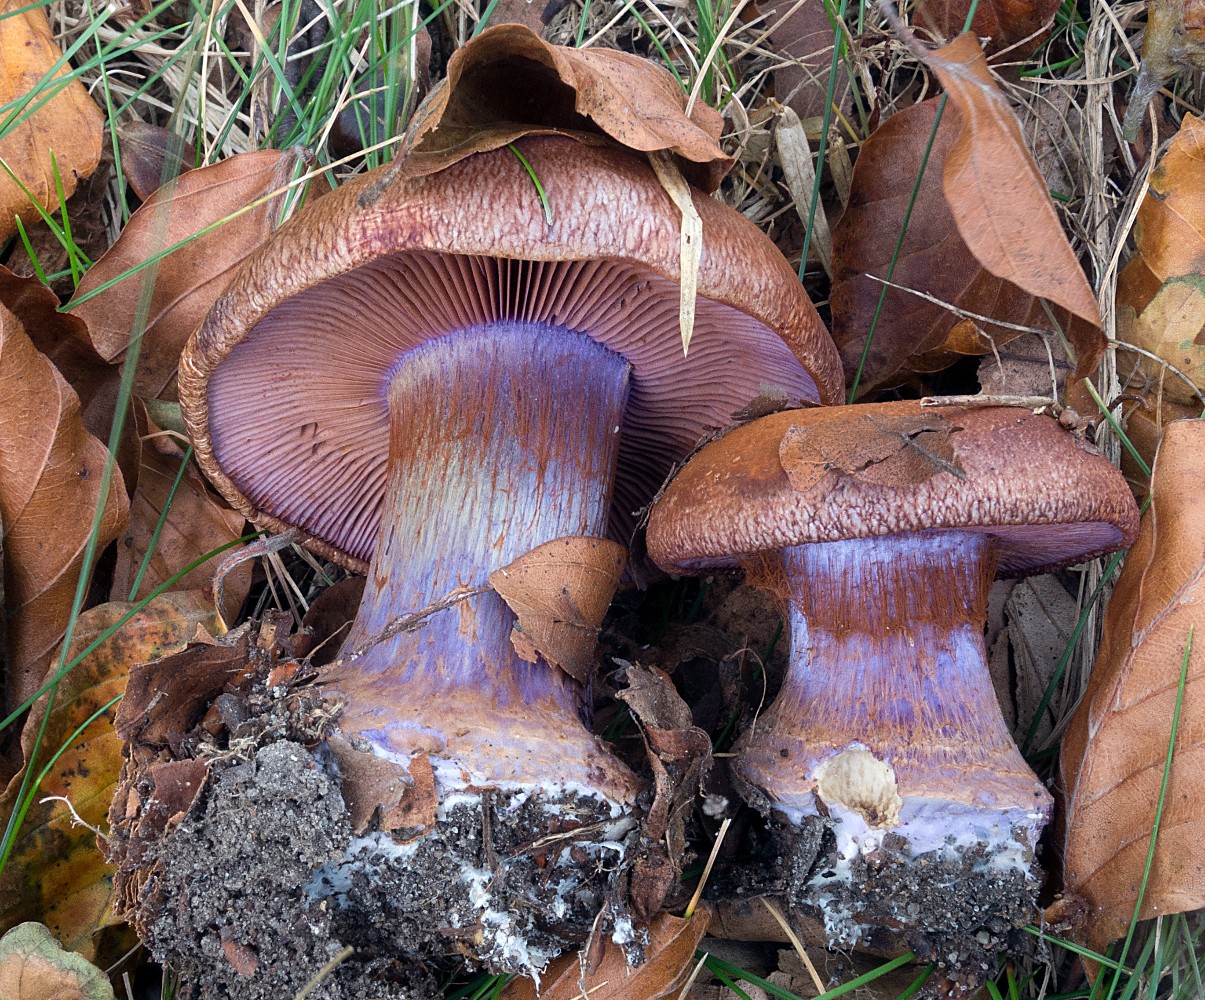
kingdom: Fungi
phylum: Basidiomycota
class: Agaricomycetes
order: Agaricales
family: Cortinariaceae
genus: Calonarius
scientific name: Calonarius violaceipes
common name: stedmoder-slørhat
